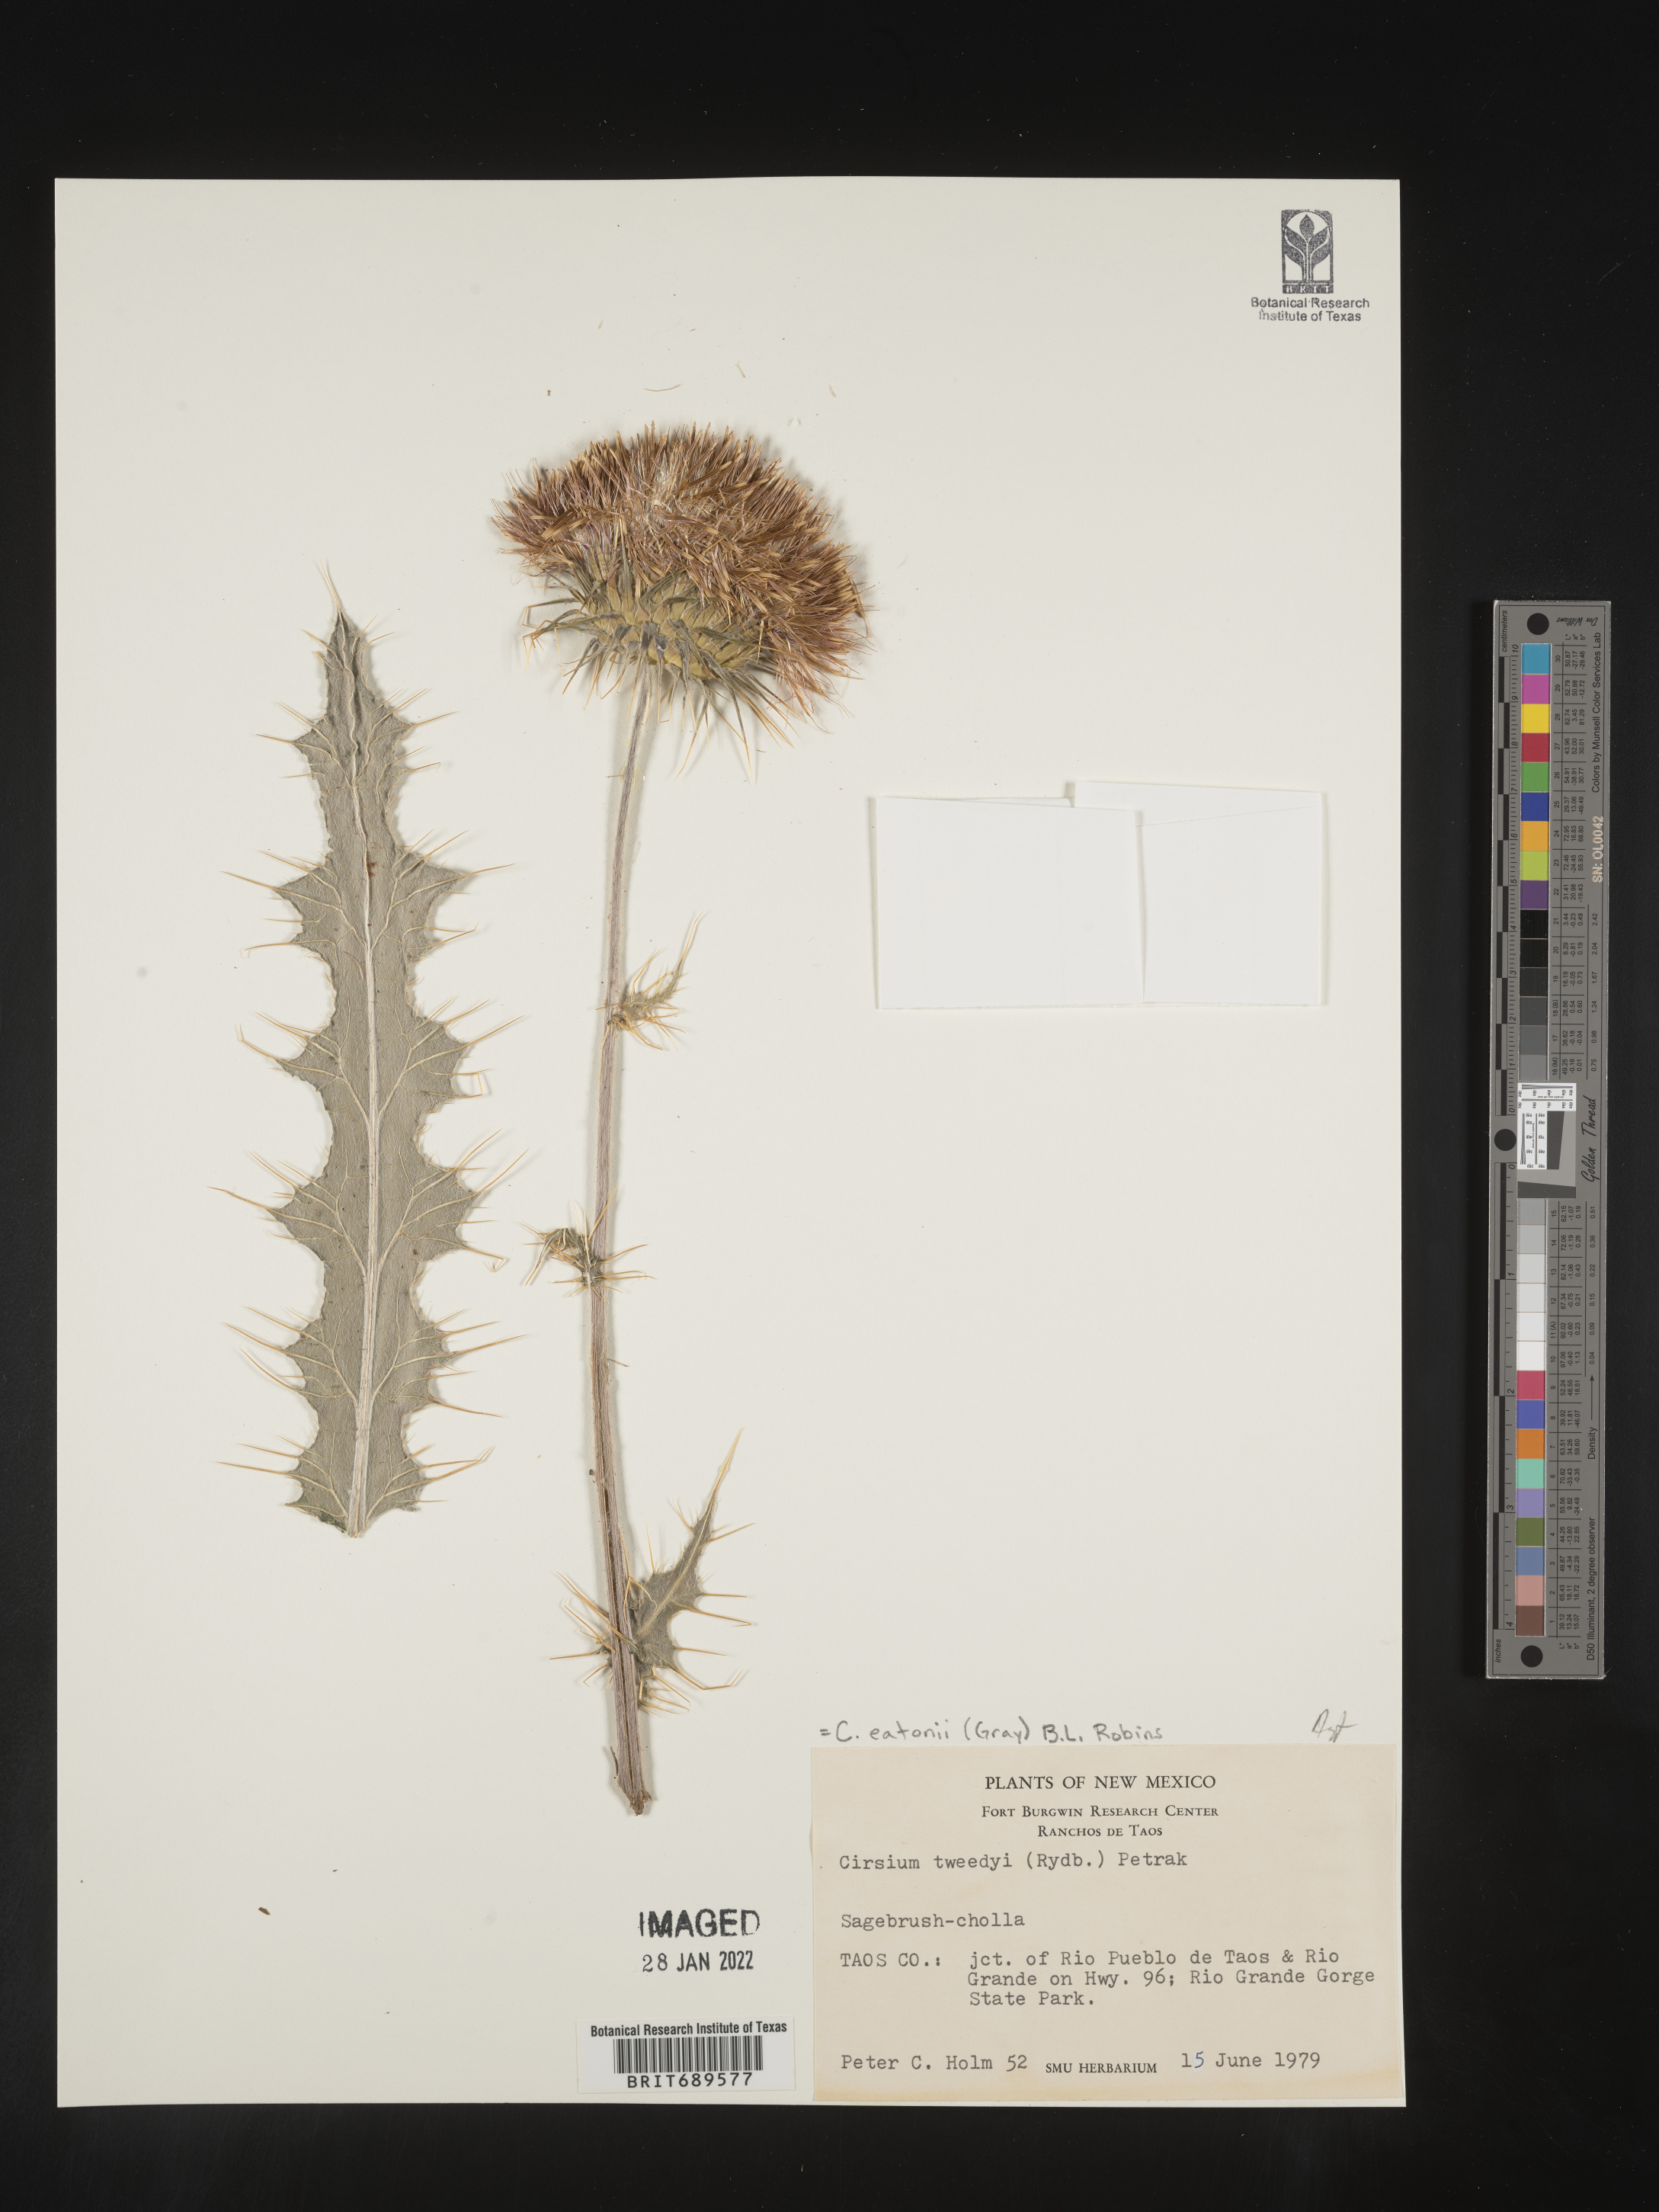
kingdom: Plantae
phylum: Tracheophyta
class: Magnoliopsida
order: Asterales
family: Asteraceae
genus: Cirsium
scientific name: Cirsium eatonii
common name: Eaton's thistle
